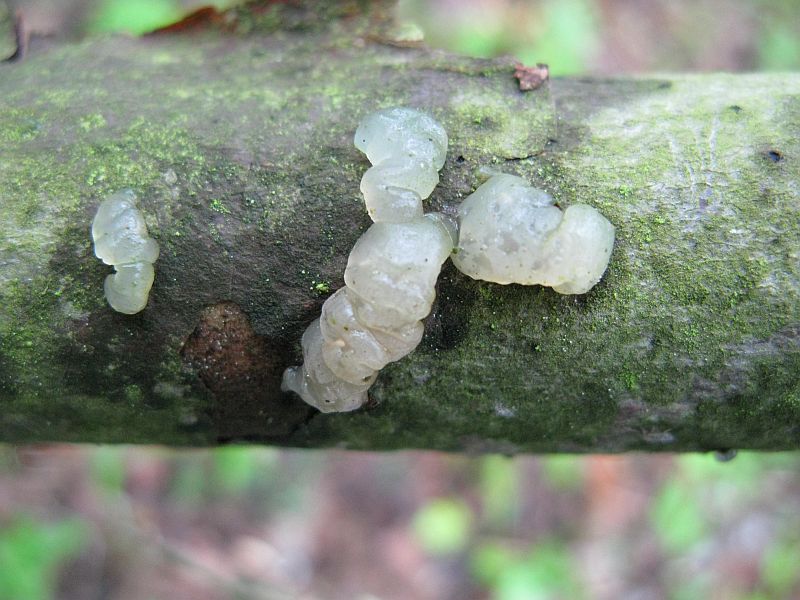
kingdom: Fungi
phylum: Basidiomycota
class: Agaricomycetes
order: Auriculariales
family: Hyaloriaceae
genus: Myxarium
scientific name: Myxarium nucleatum
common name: klar bævretop
